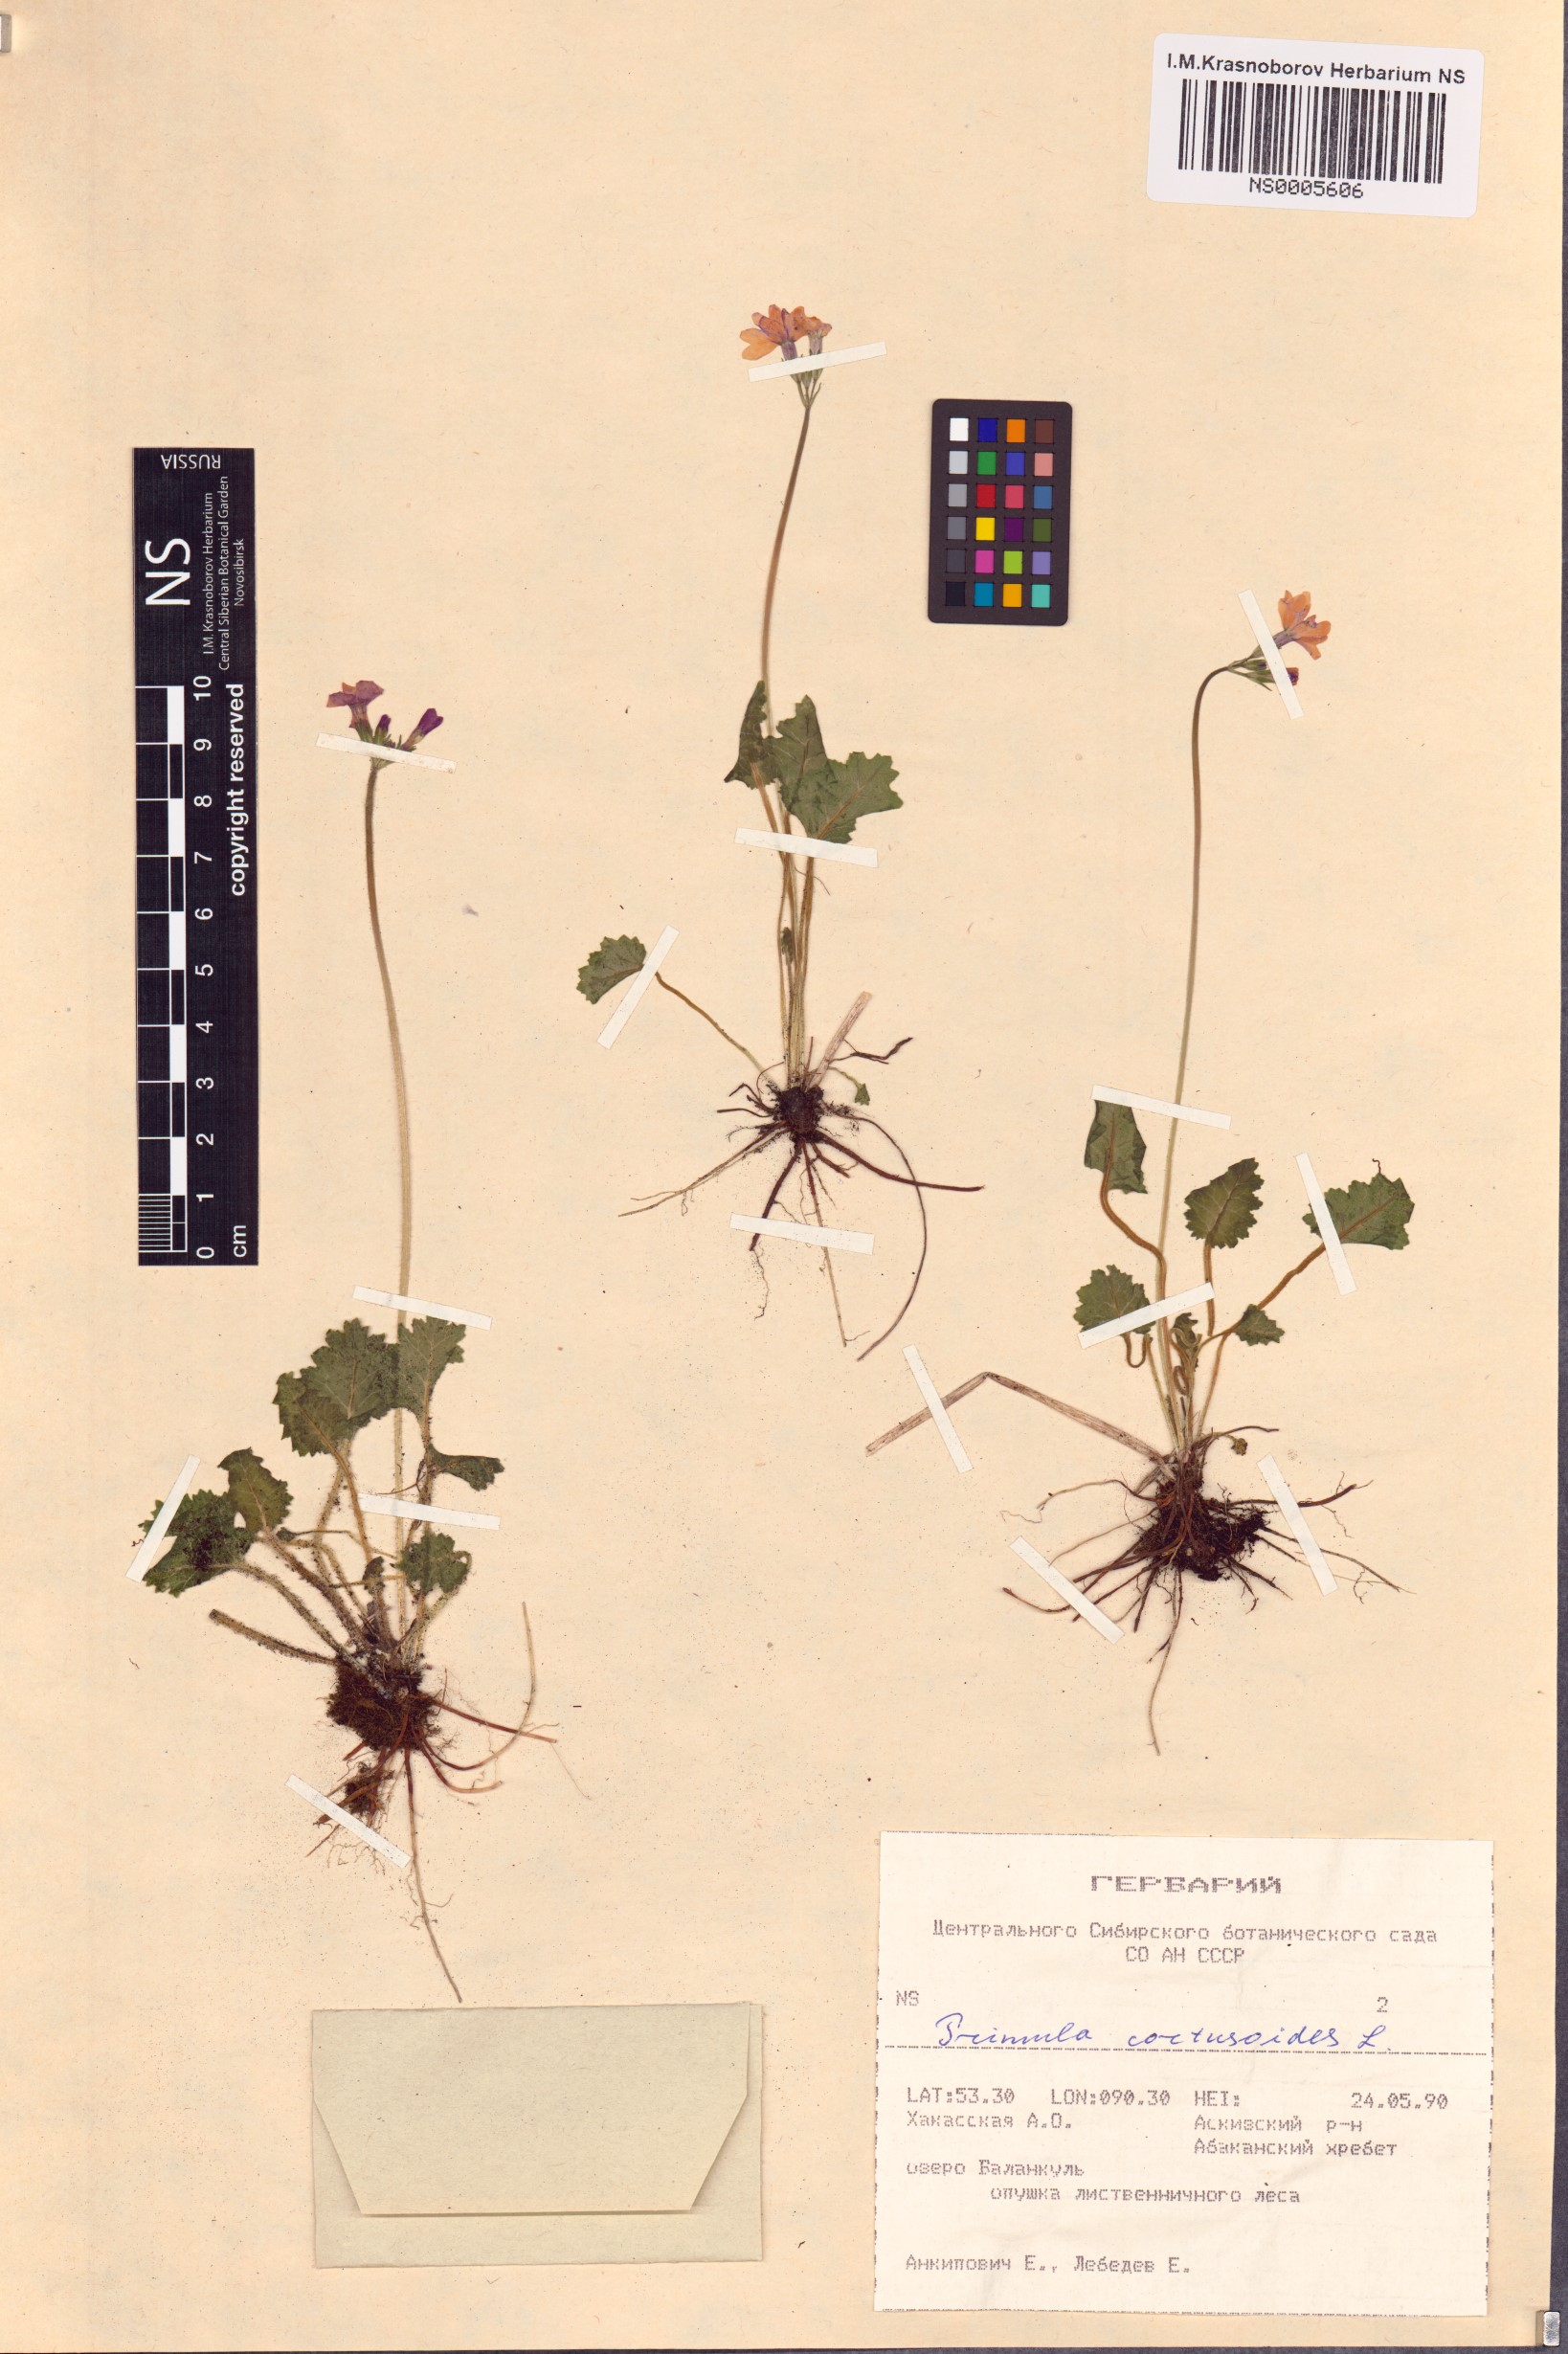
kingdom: Plantae
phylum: Tracheophyta
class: Magnoliopsida
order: Ericales
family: Primulaceae
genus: Primula
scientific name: Primula cortusoides
